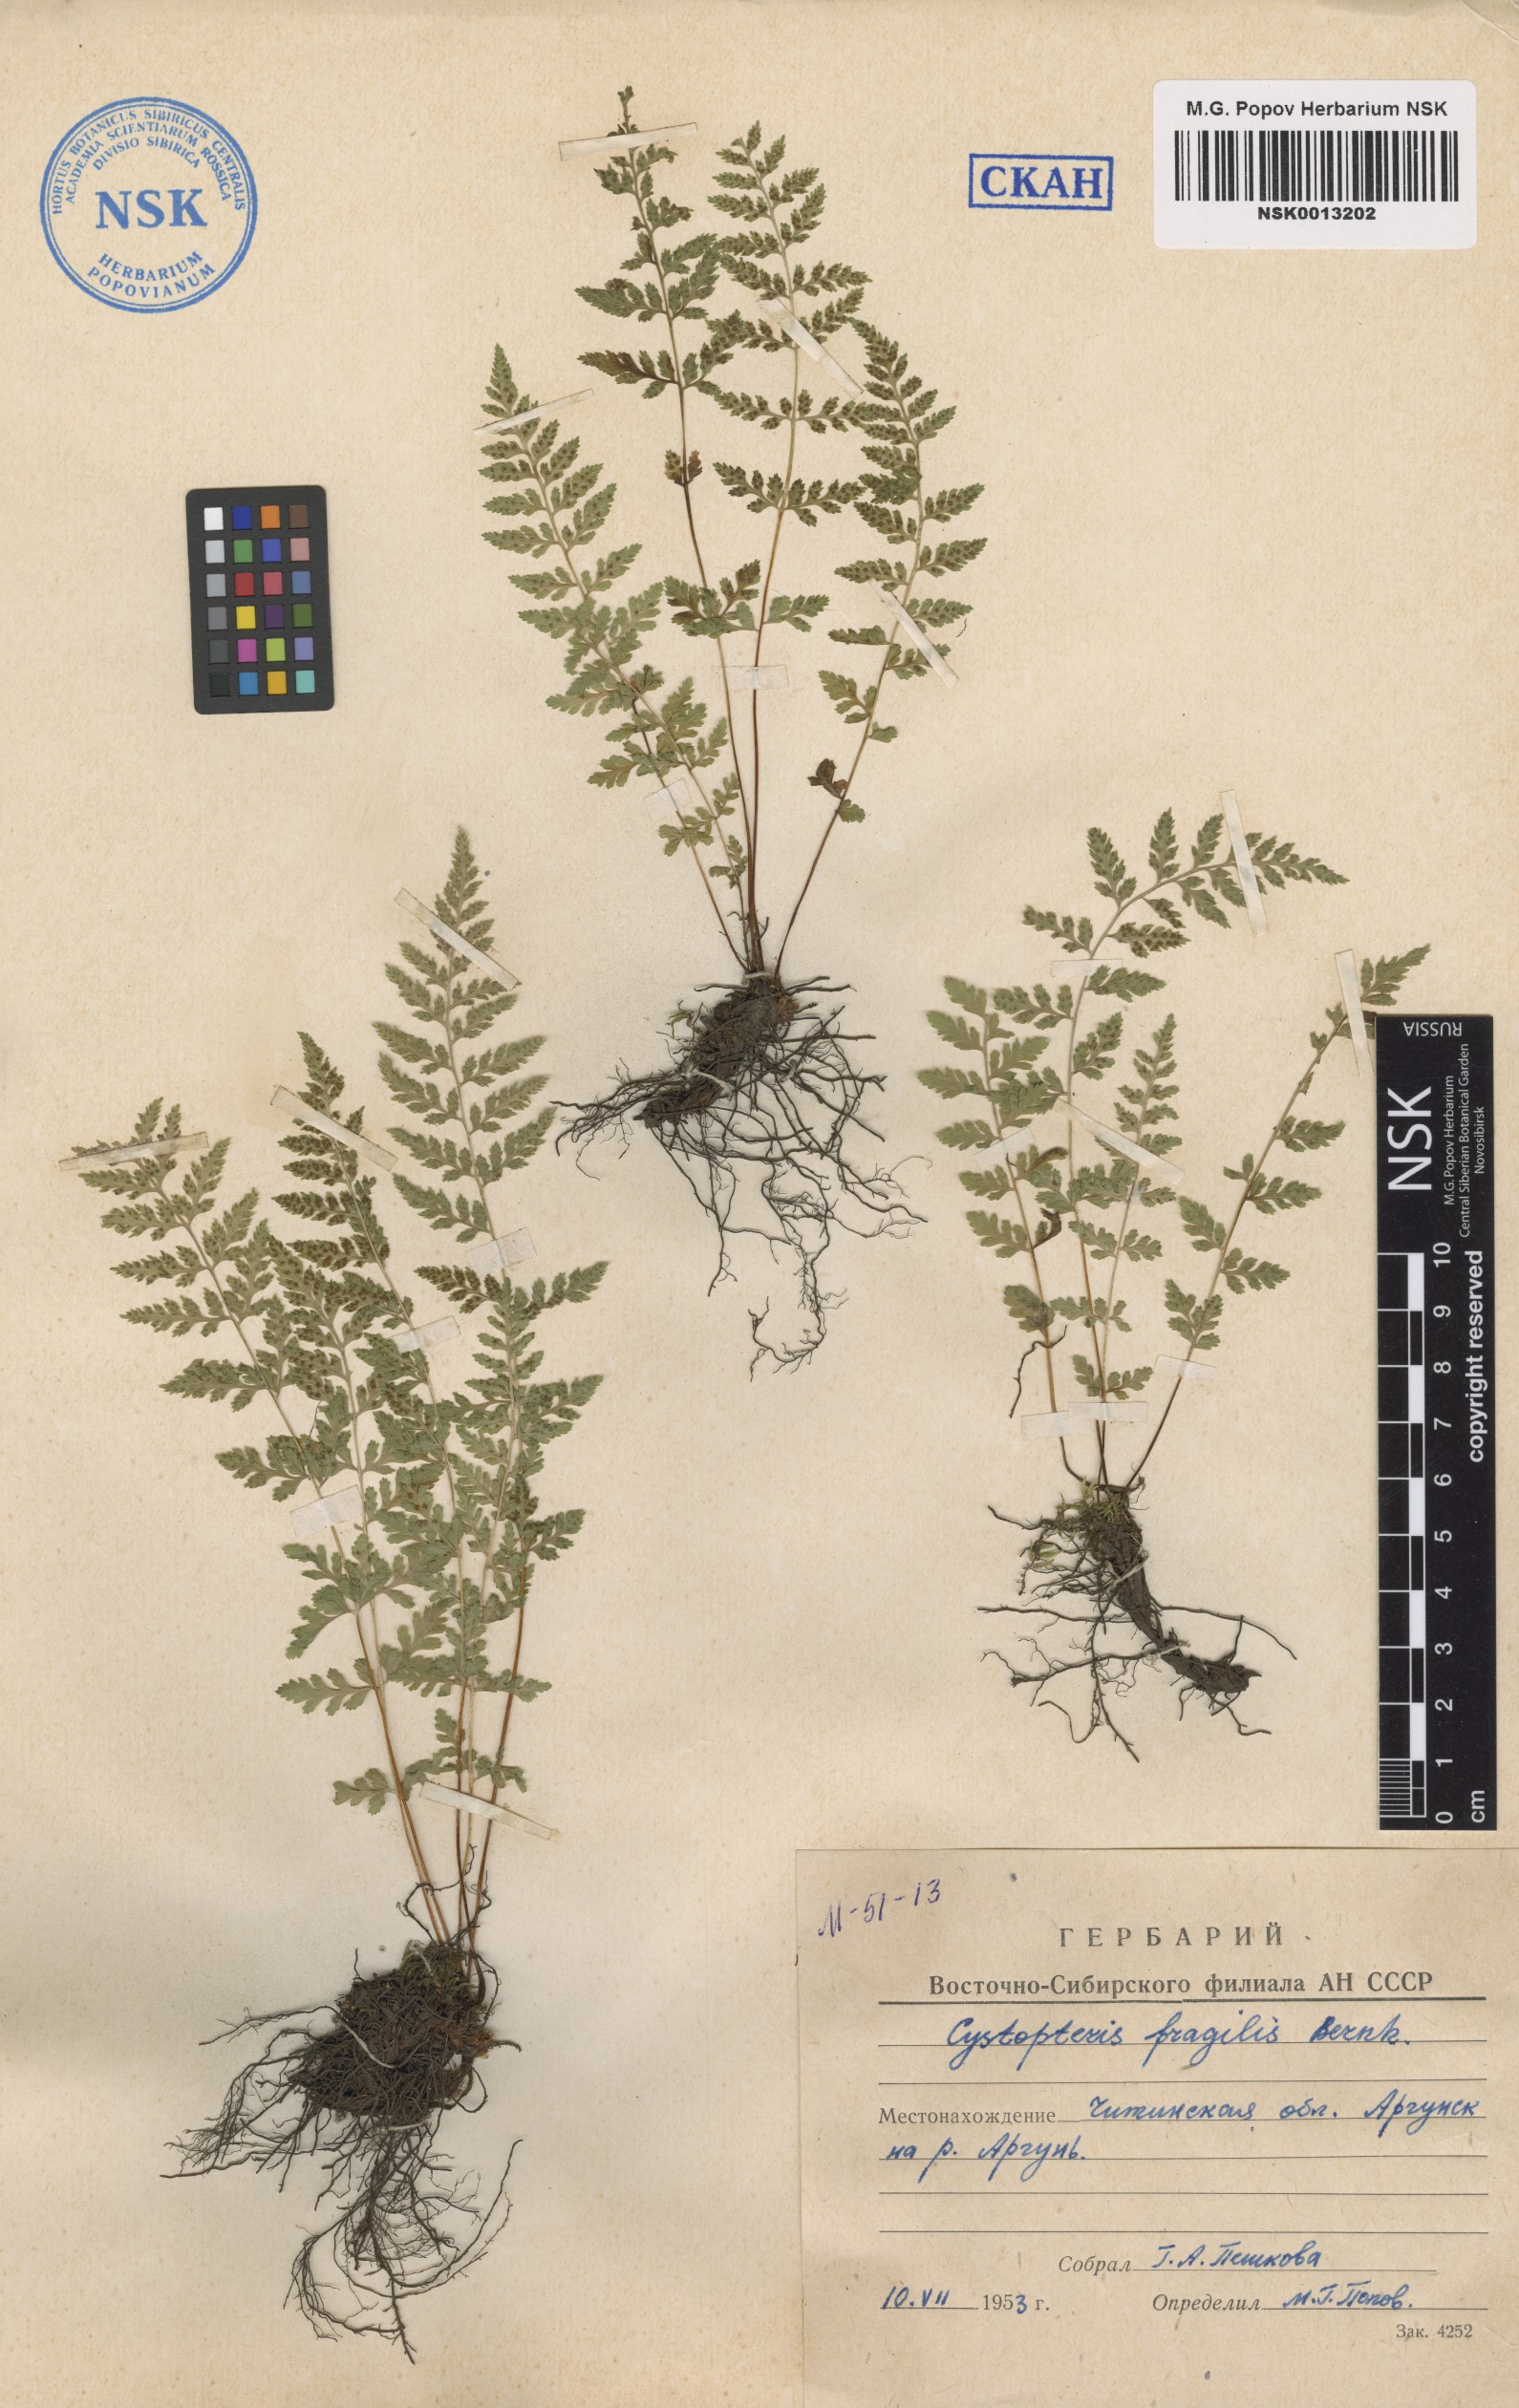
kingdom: Plantae
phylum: Tracheophyta
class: Polypodiopsida
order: Polypodiales
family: Cystopteridaceae
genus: Cystopteris
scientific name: Cystopteris fragilis
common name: Brittle bladder fern
